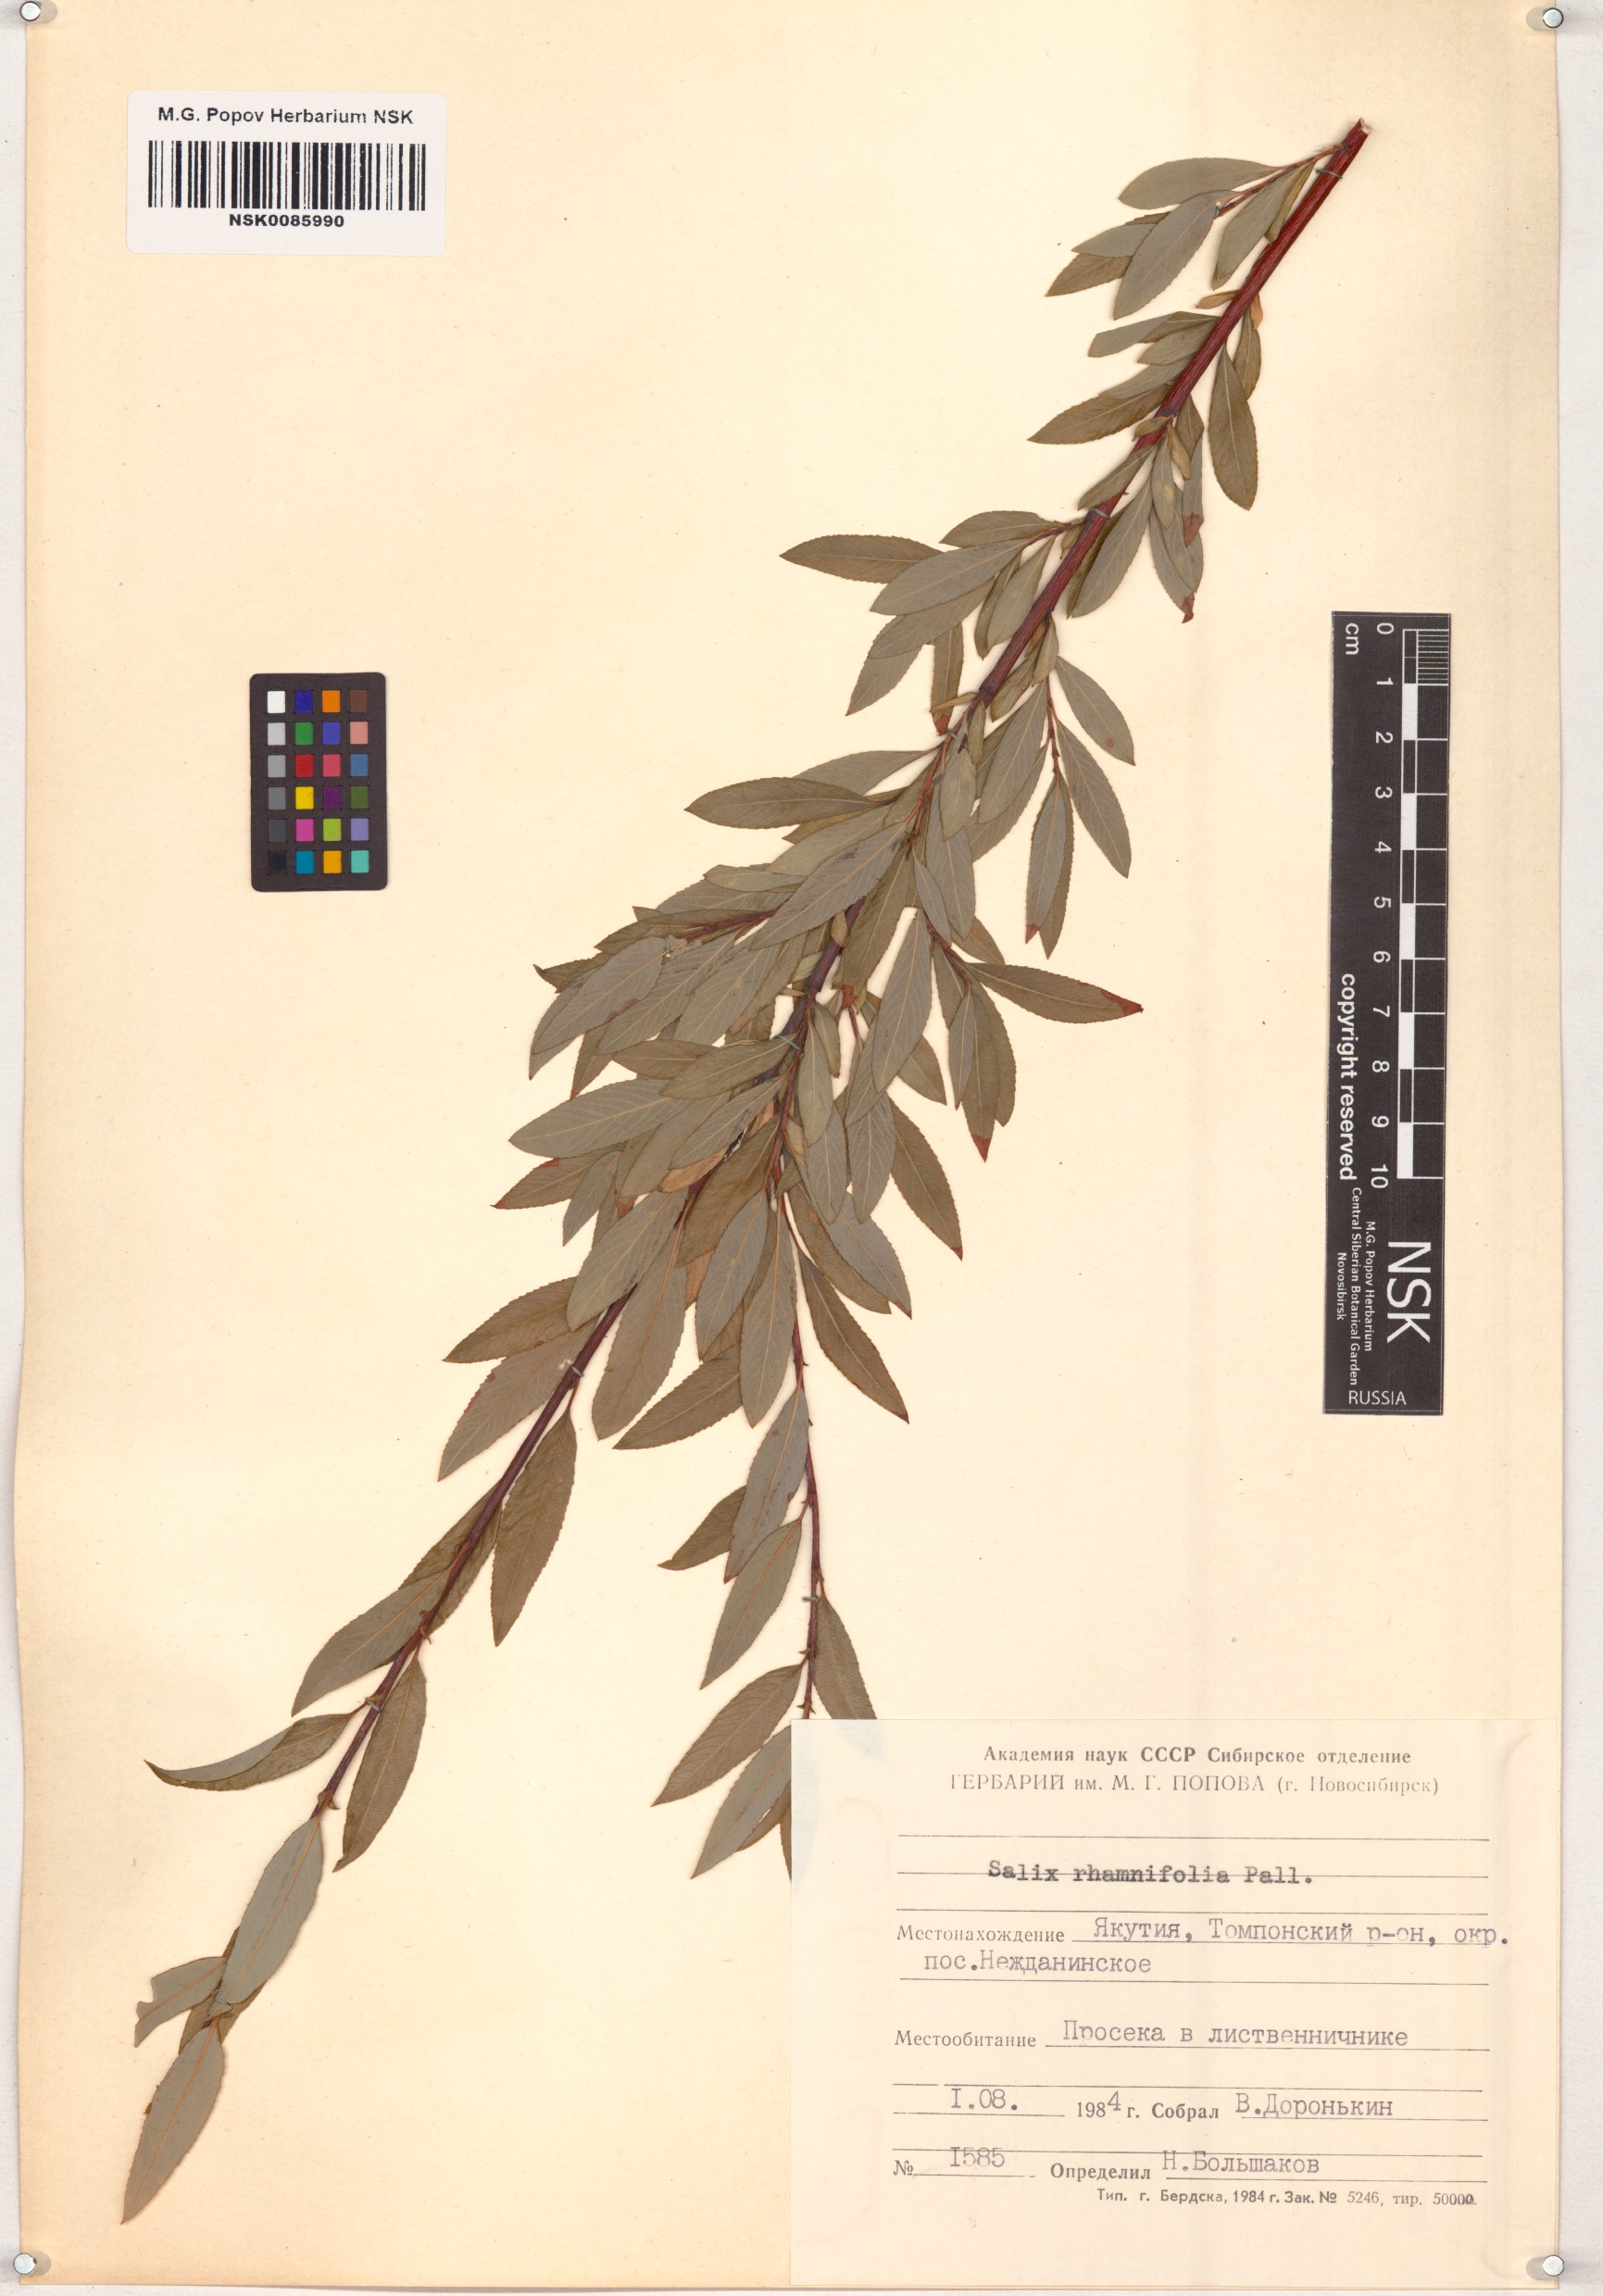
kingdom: Plantae
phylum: Tracheophyta
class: Magnoliopsida
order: Malpighiales
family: Salicaceae
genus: Salix
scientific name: Salix rhamnifolia
